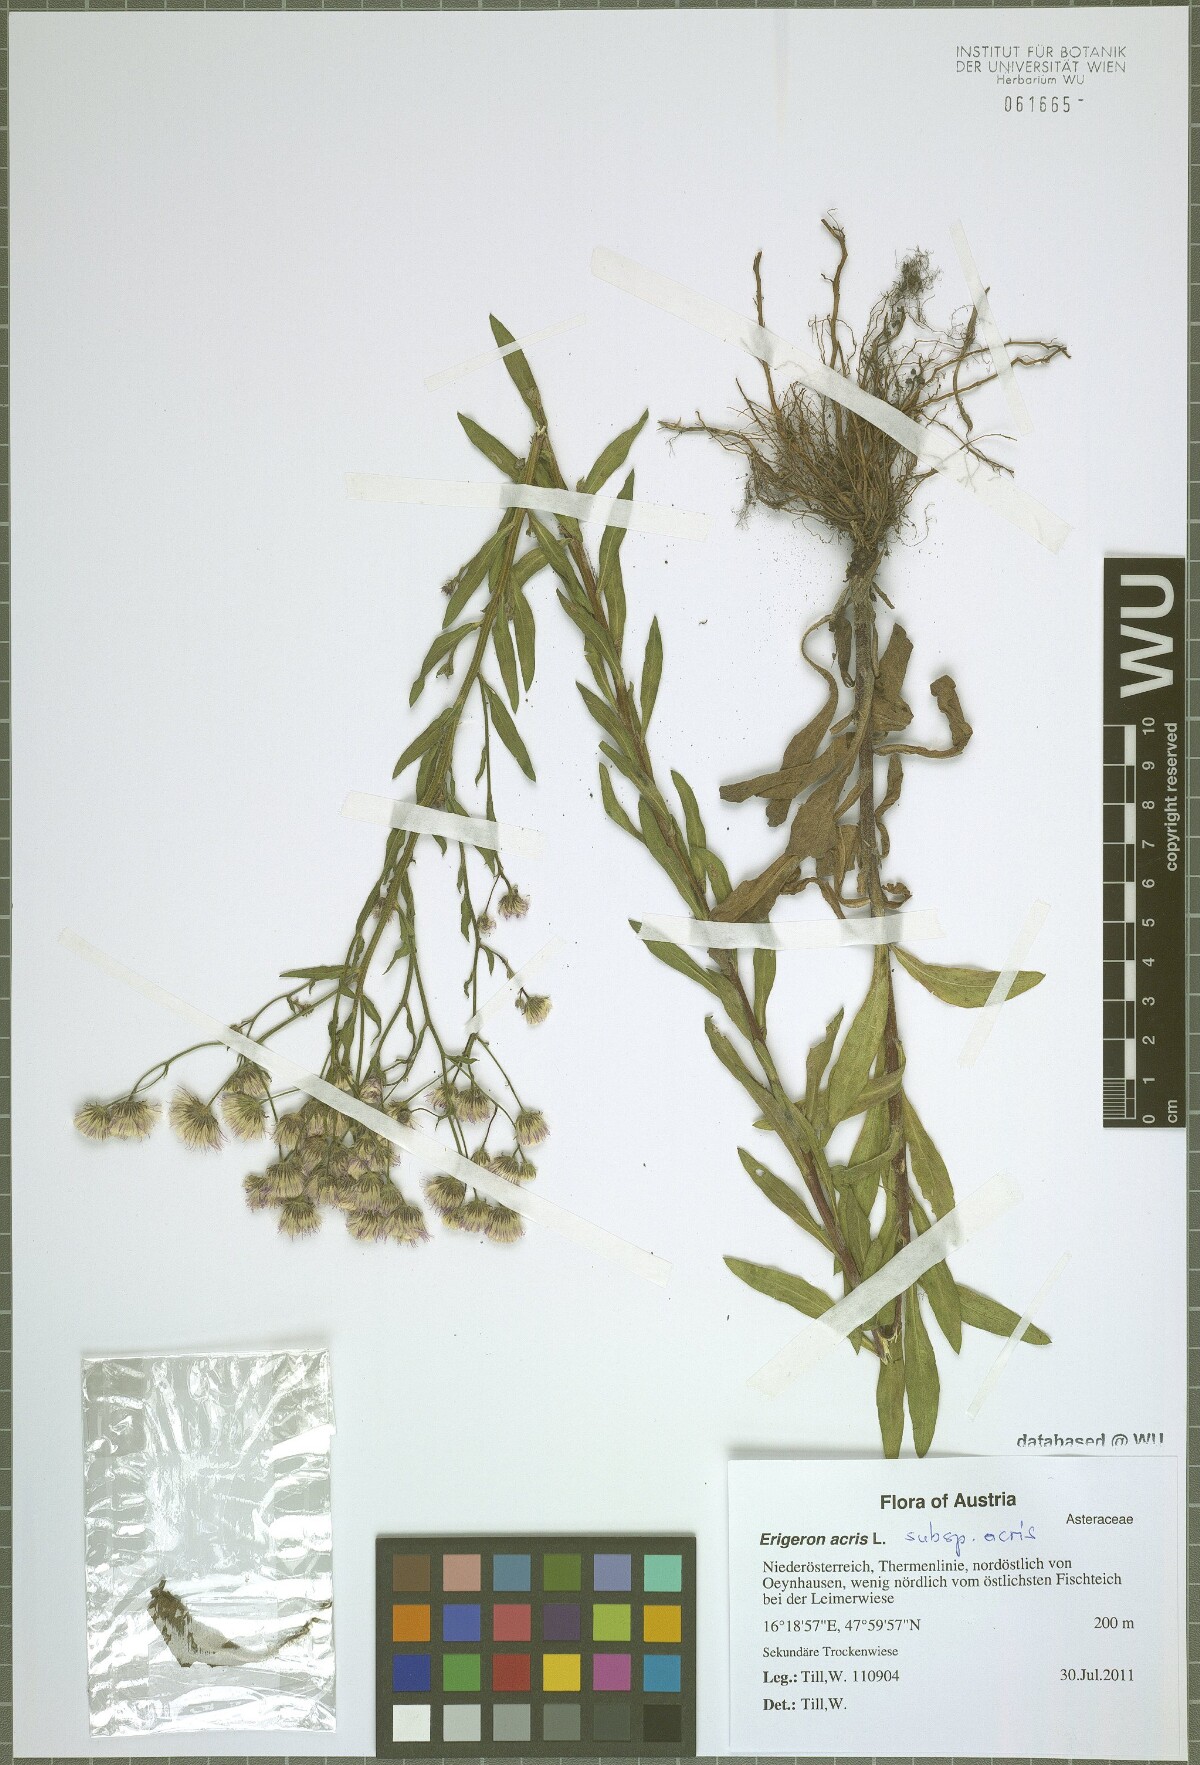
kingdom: Plantae
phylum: Tracheophyta
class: Magnoliopsida
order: Asterales
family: Asteraceae
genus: Erigeron
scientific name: Erigeron acris
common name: Blue fleabane
